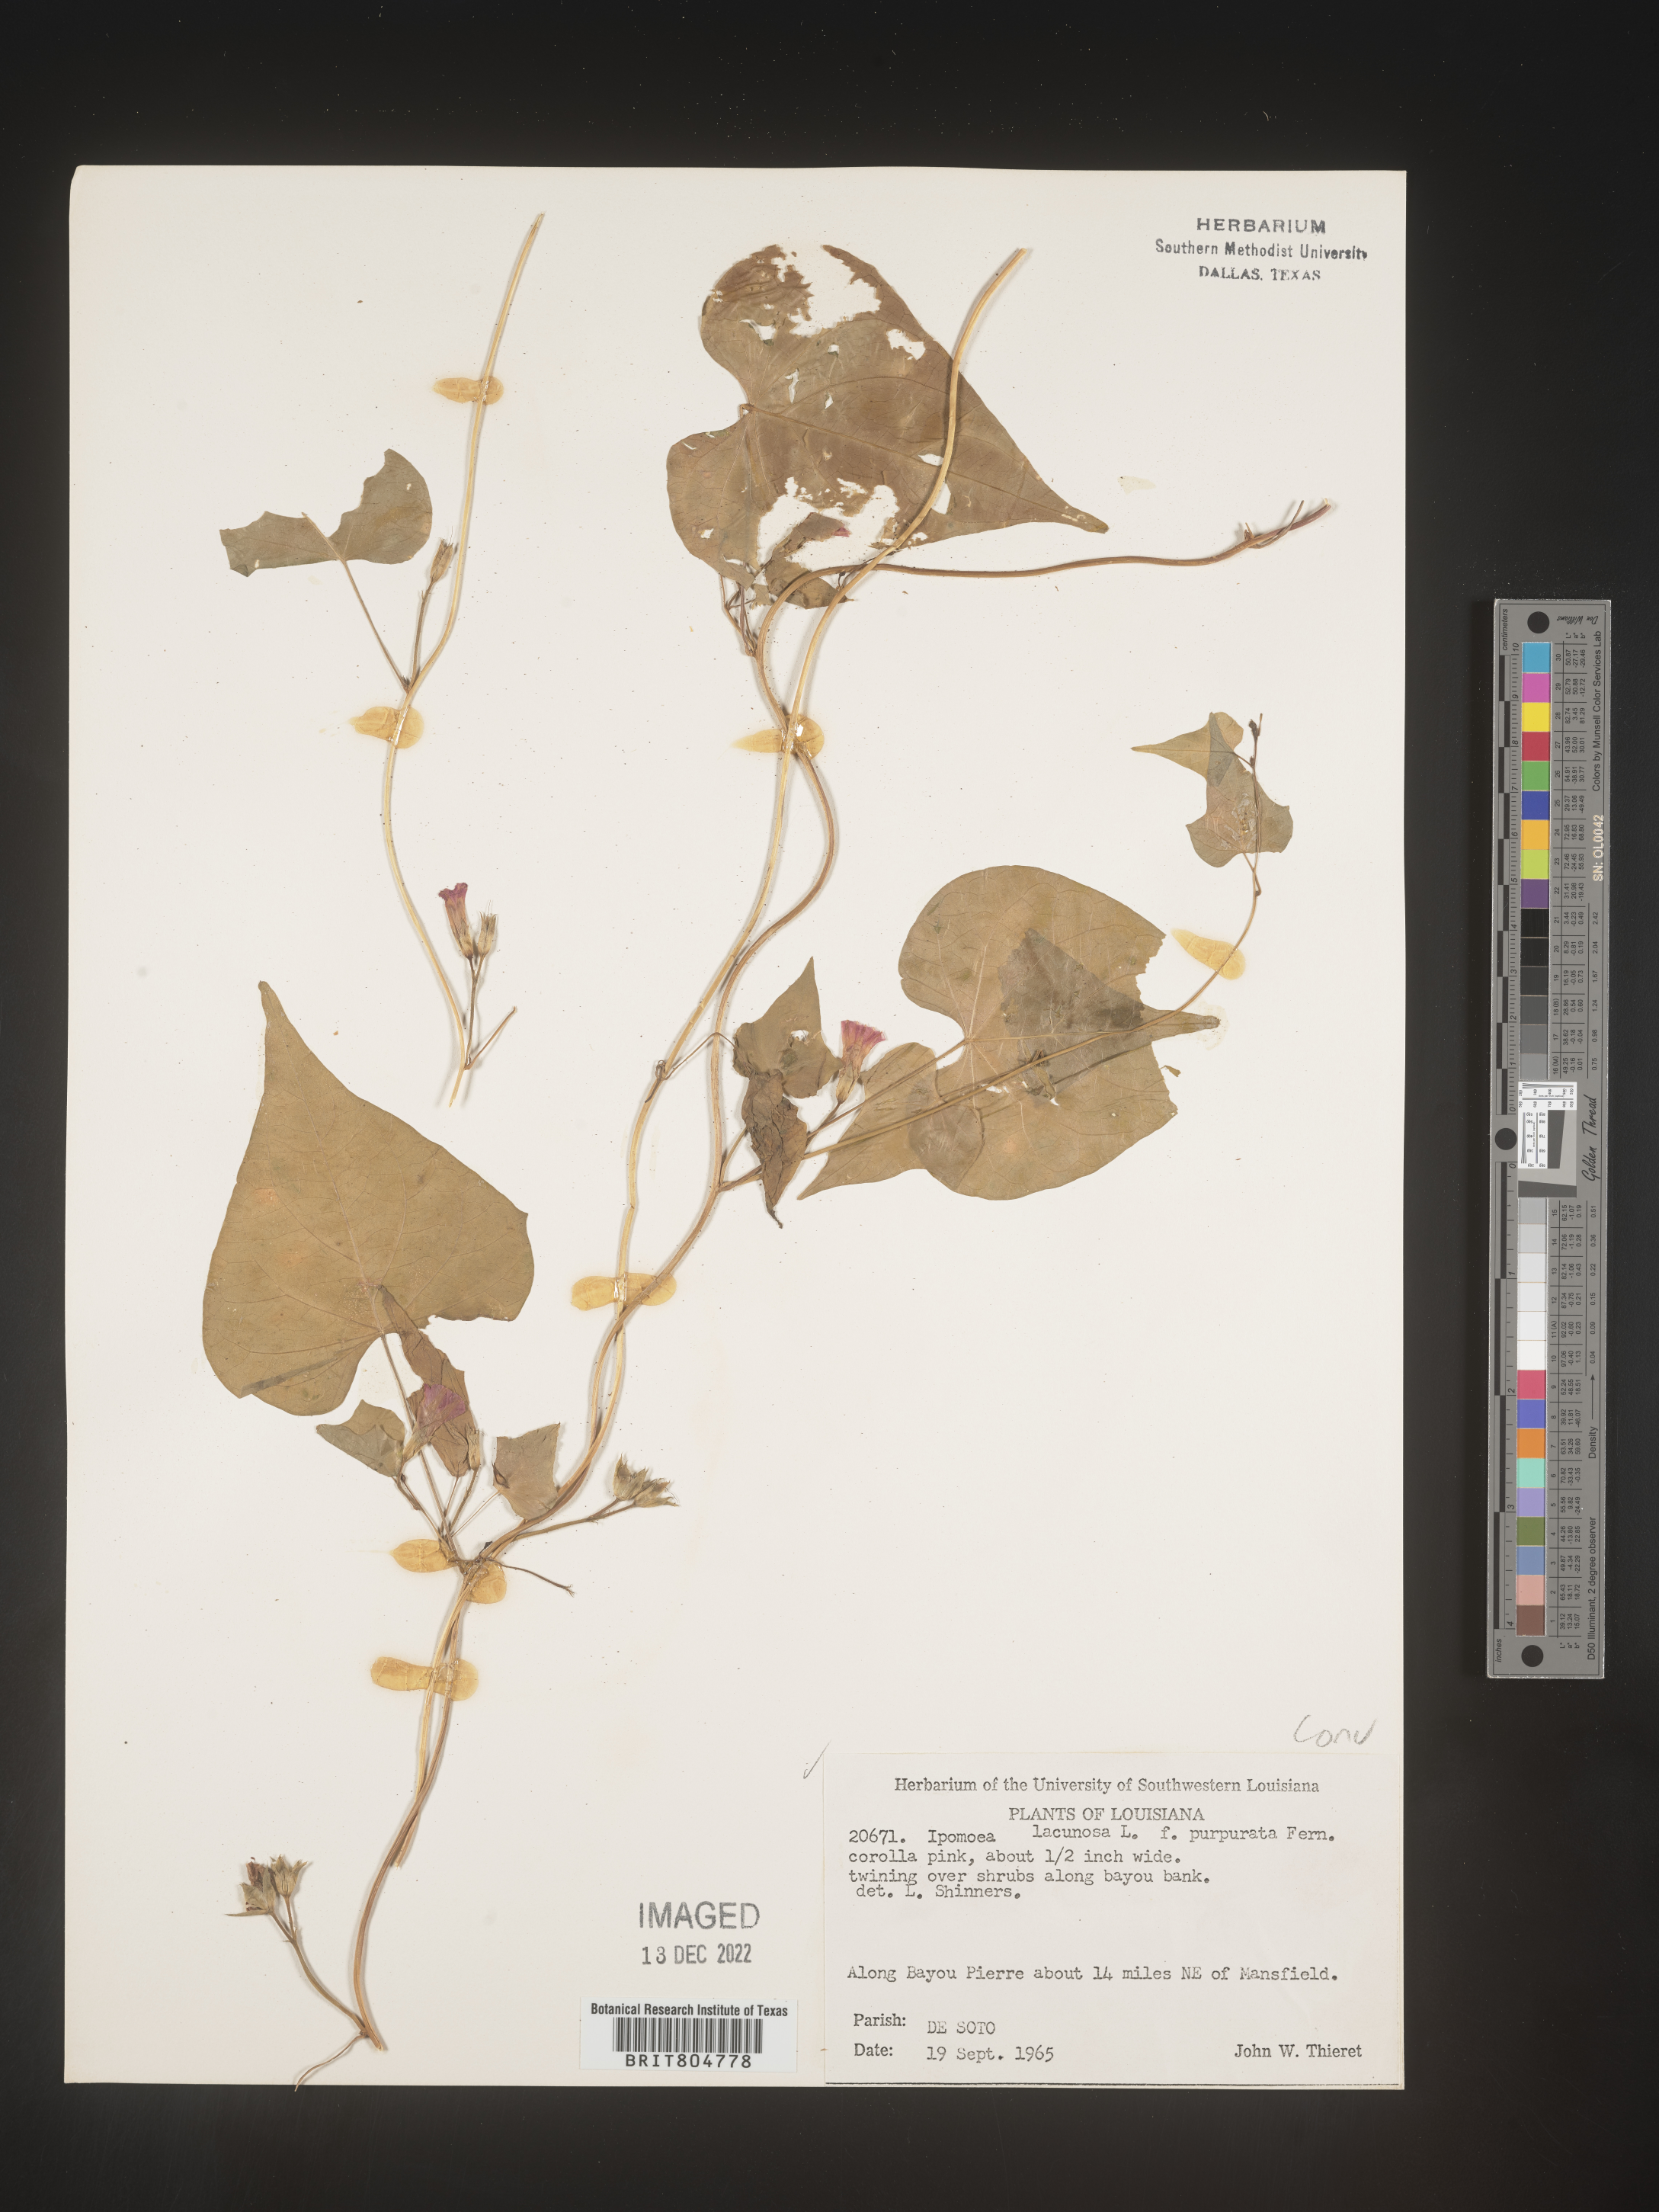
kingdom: Plantae
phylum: Tracheophyta
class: Magnoliopsida
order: Solanales
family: Convolvulaceae
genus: Ipomoea
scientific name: Ipomoea lacunosa
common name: White morning-glory
